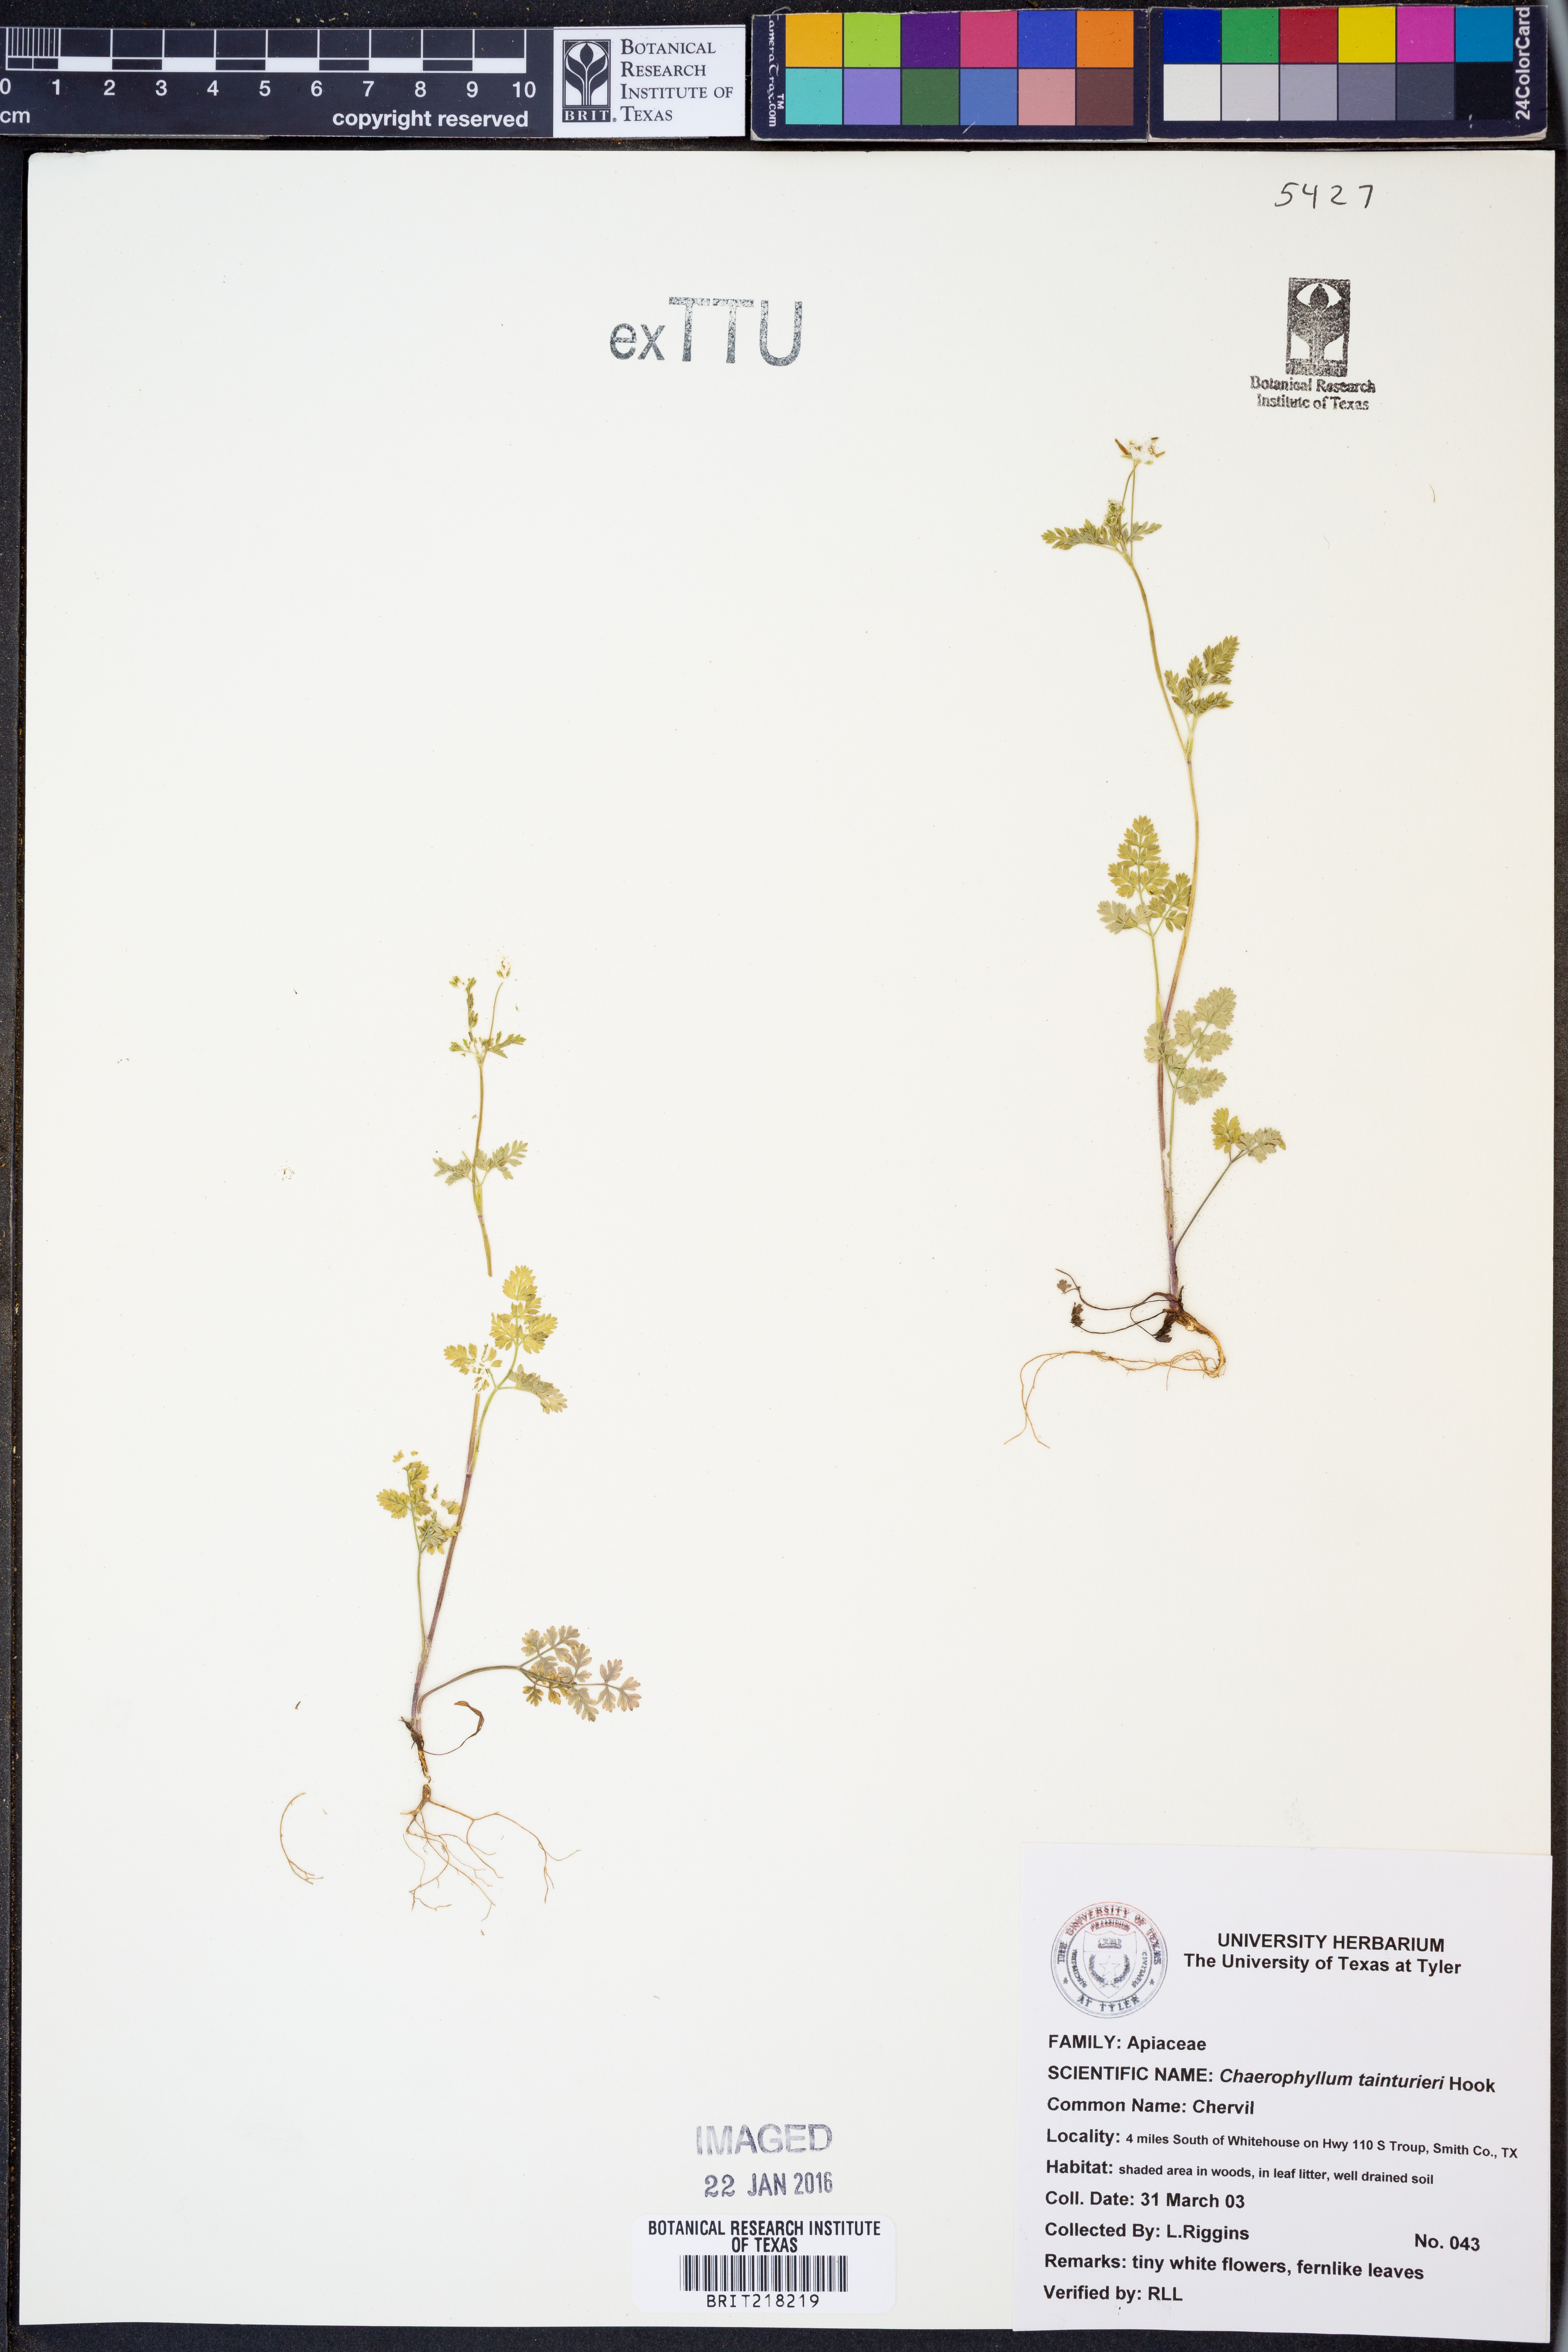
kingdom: Plantae
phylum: Tracheophyta
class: Magnoliopsida
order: Apiales
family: Apiaceae
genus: Chaerophyllum
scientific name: Chaerophyllum tainturieri
